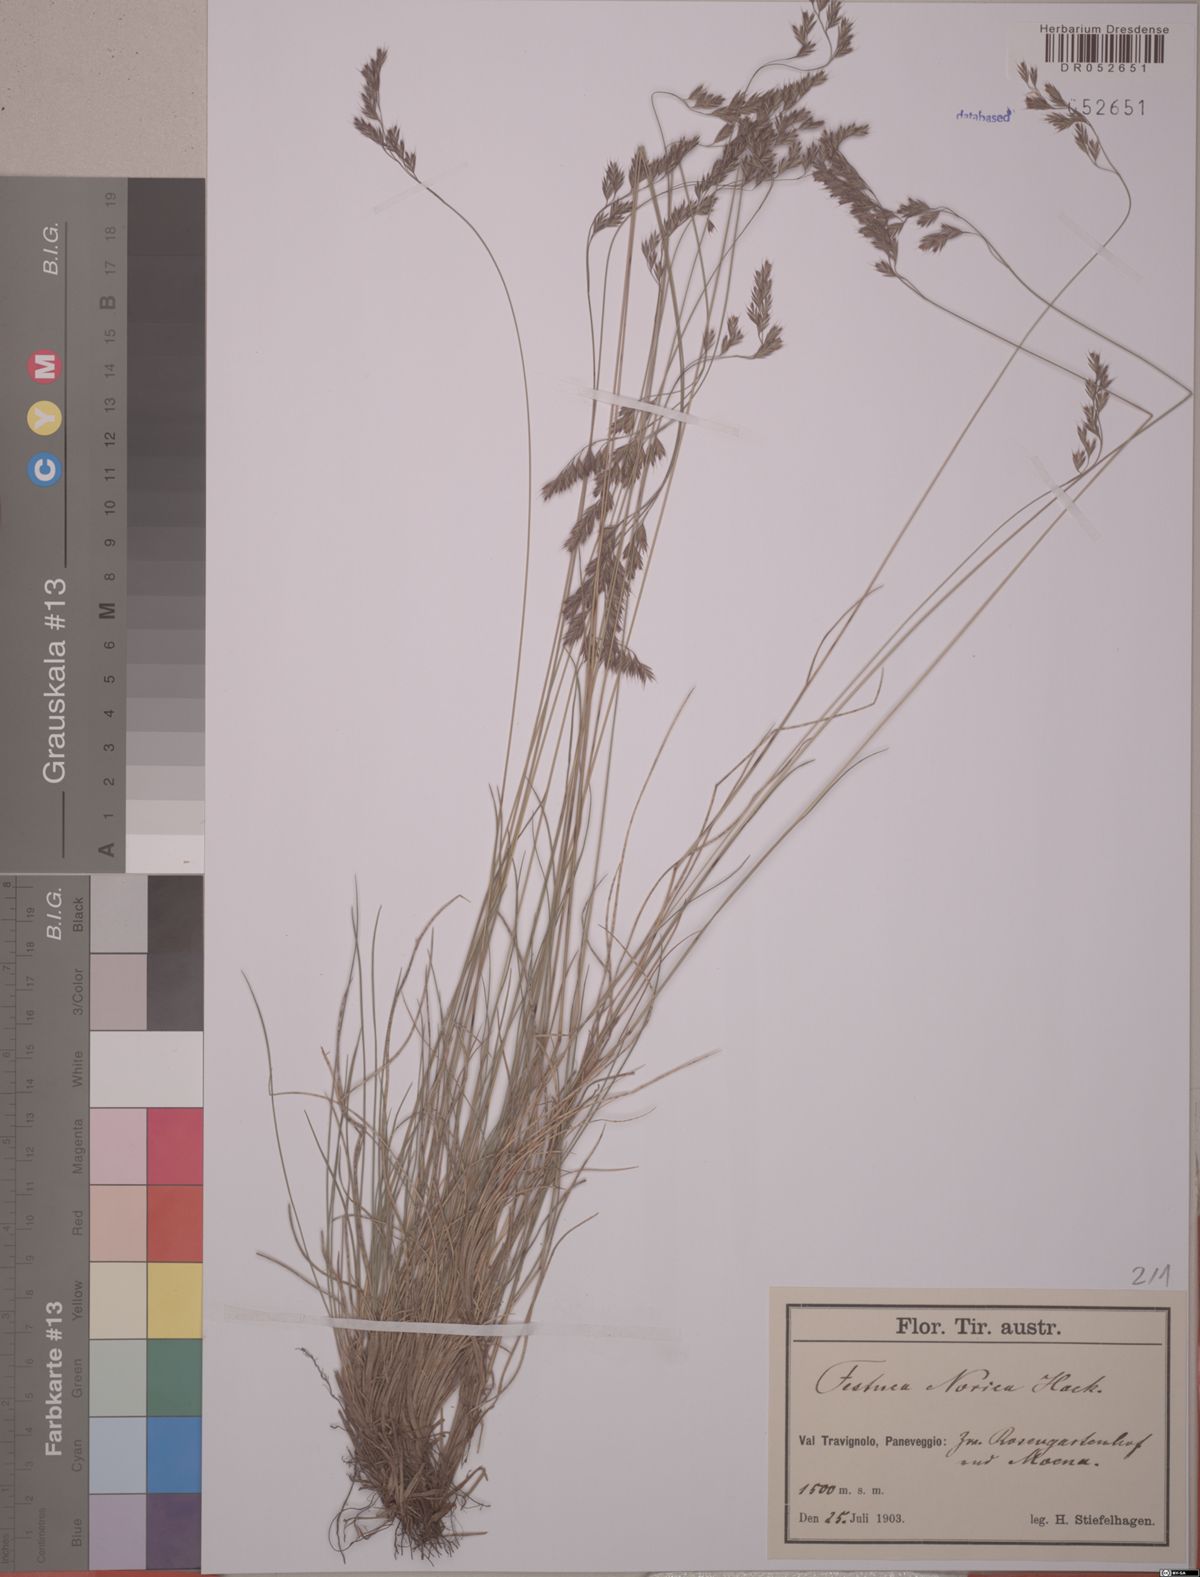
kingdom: Plantae
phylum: Tracheophyta
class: Liliopsida
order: Poales
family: Poaceae
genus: Festuca
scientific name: Festuca norica
